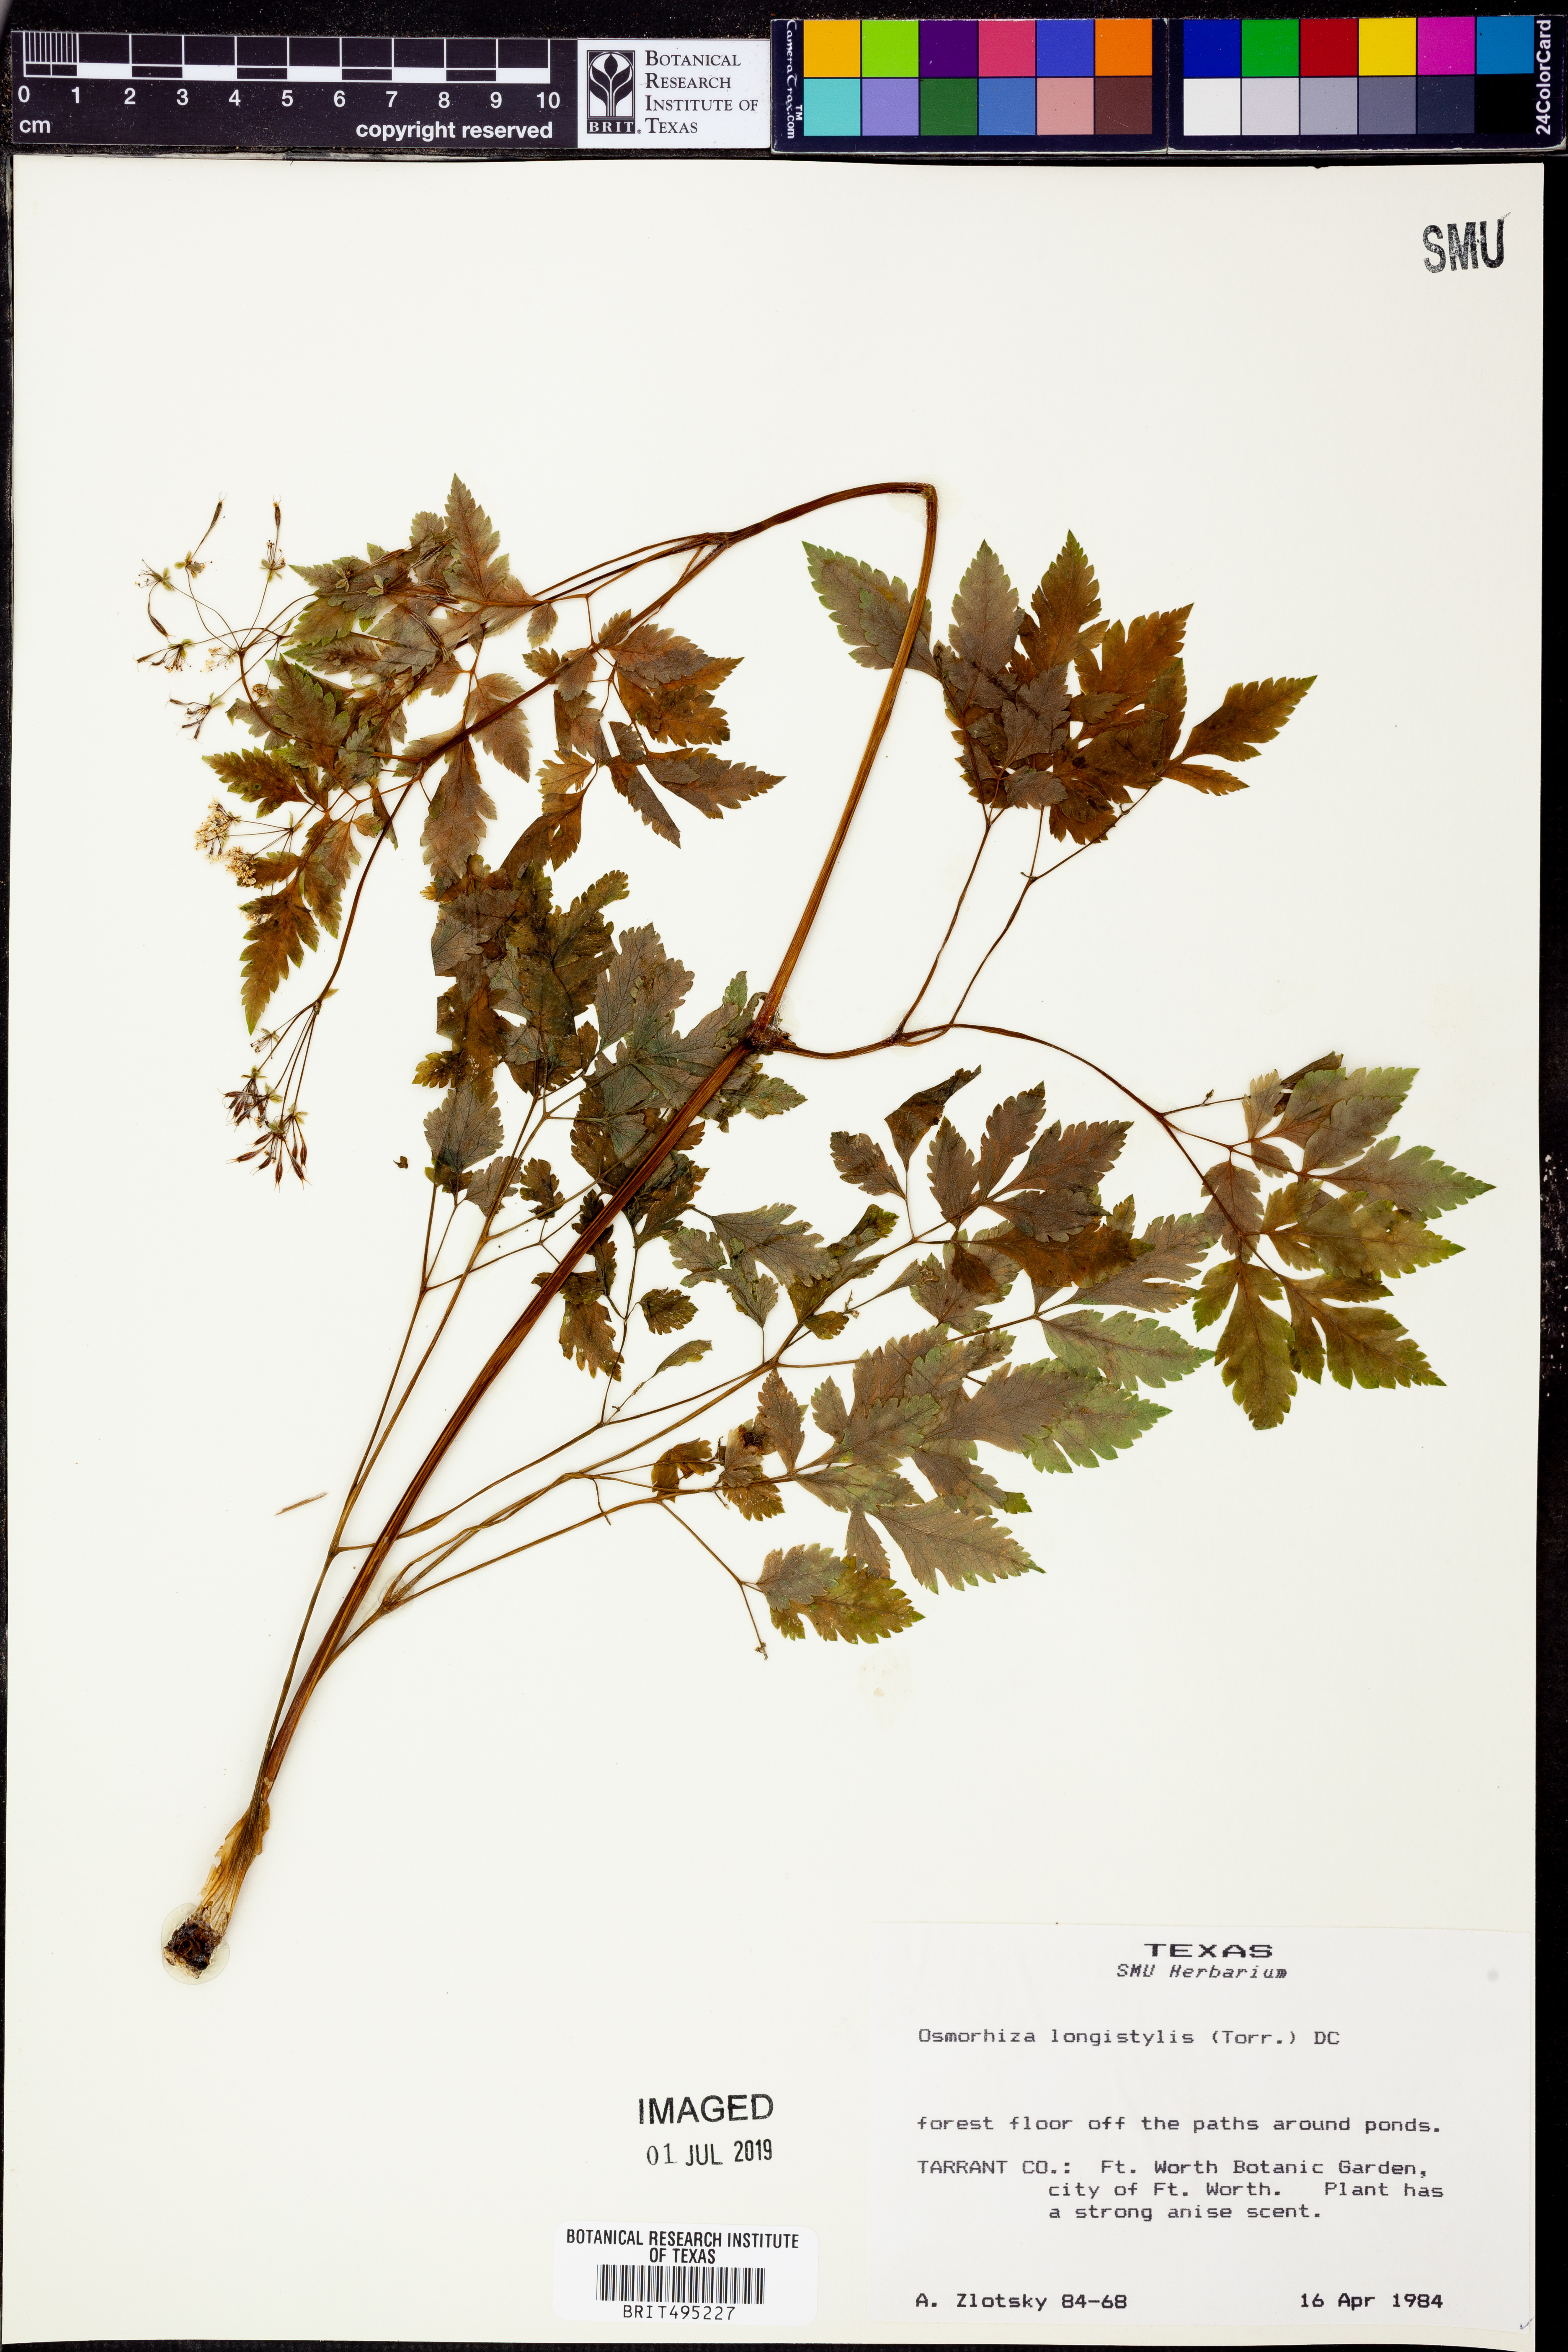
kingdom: Plantae
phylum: Tracheophyta
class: Magnoliopsida
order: Apiales
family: Apiaceae
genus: Osmorhiza
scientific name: Osmorhiza longistylis
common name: Smooth sweet cicely
